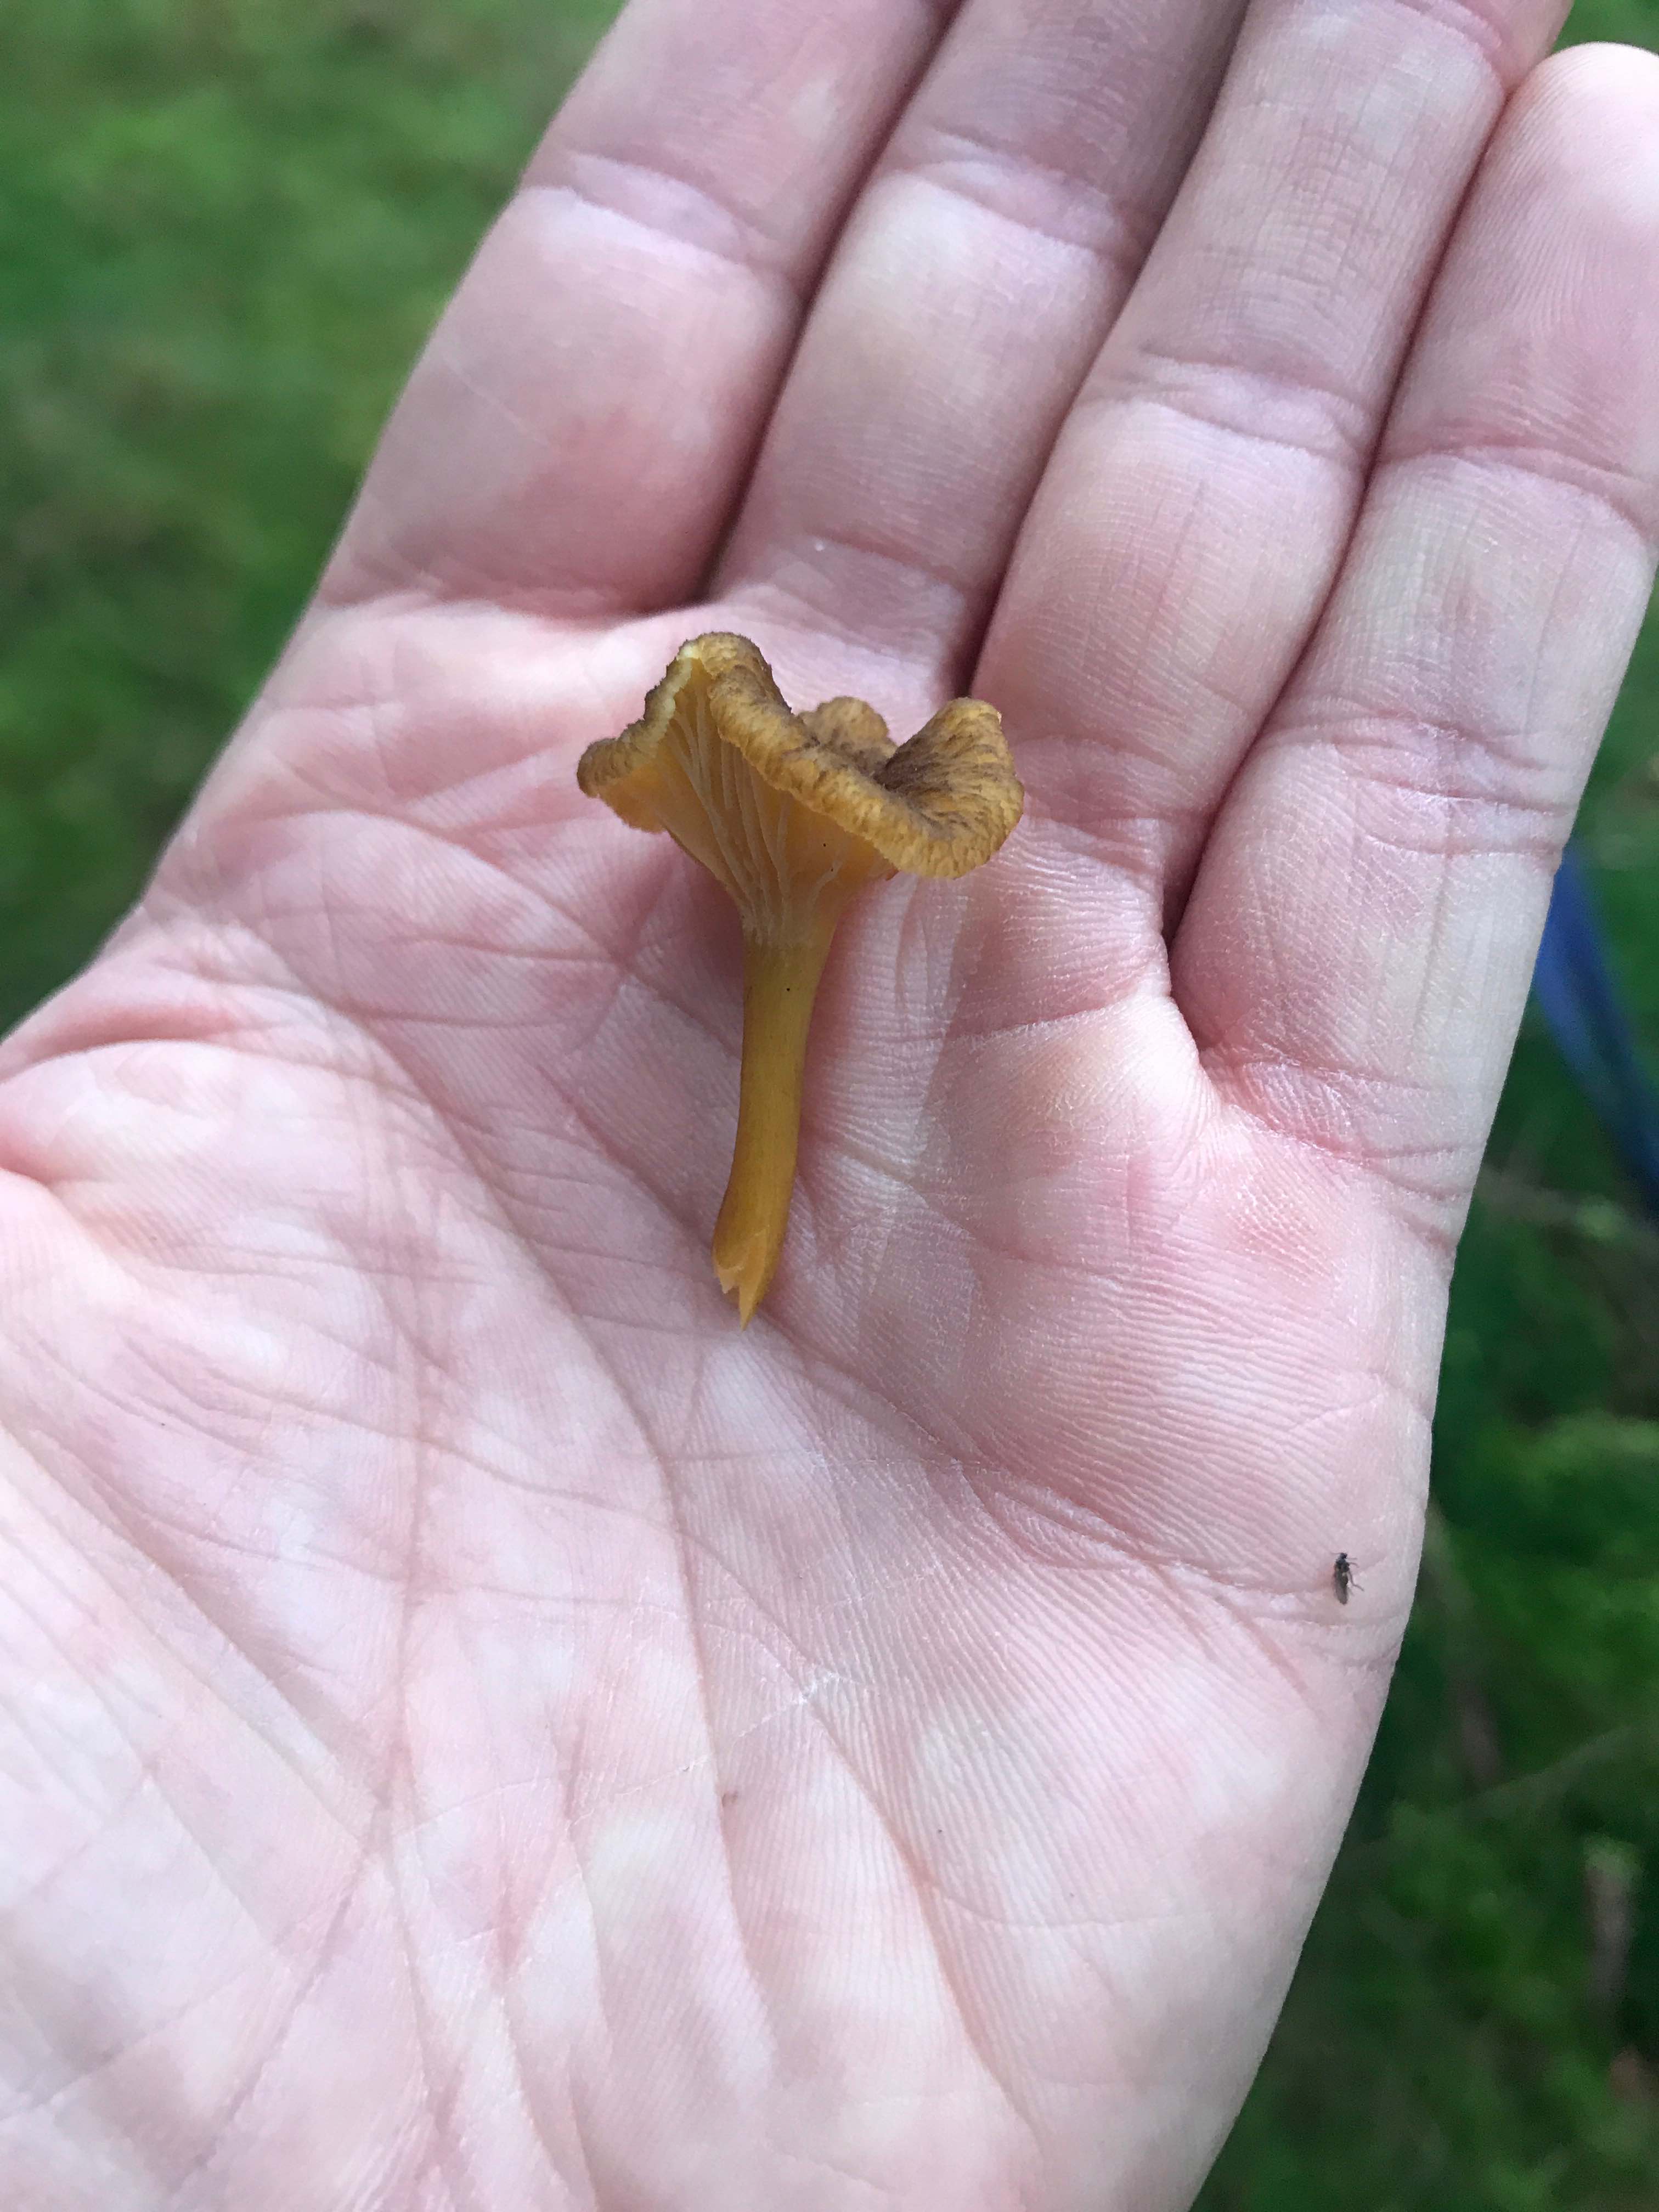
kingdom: Fungi
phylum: Basidiomycota
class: Agaricomycetes
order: Cantharellales
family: Hydnaceae
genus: Craterellus
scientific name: Craterellus tubaeformis
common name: tragt-kantarel
